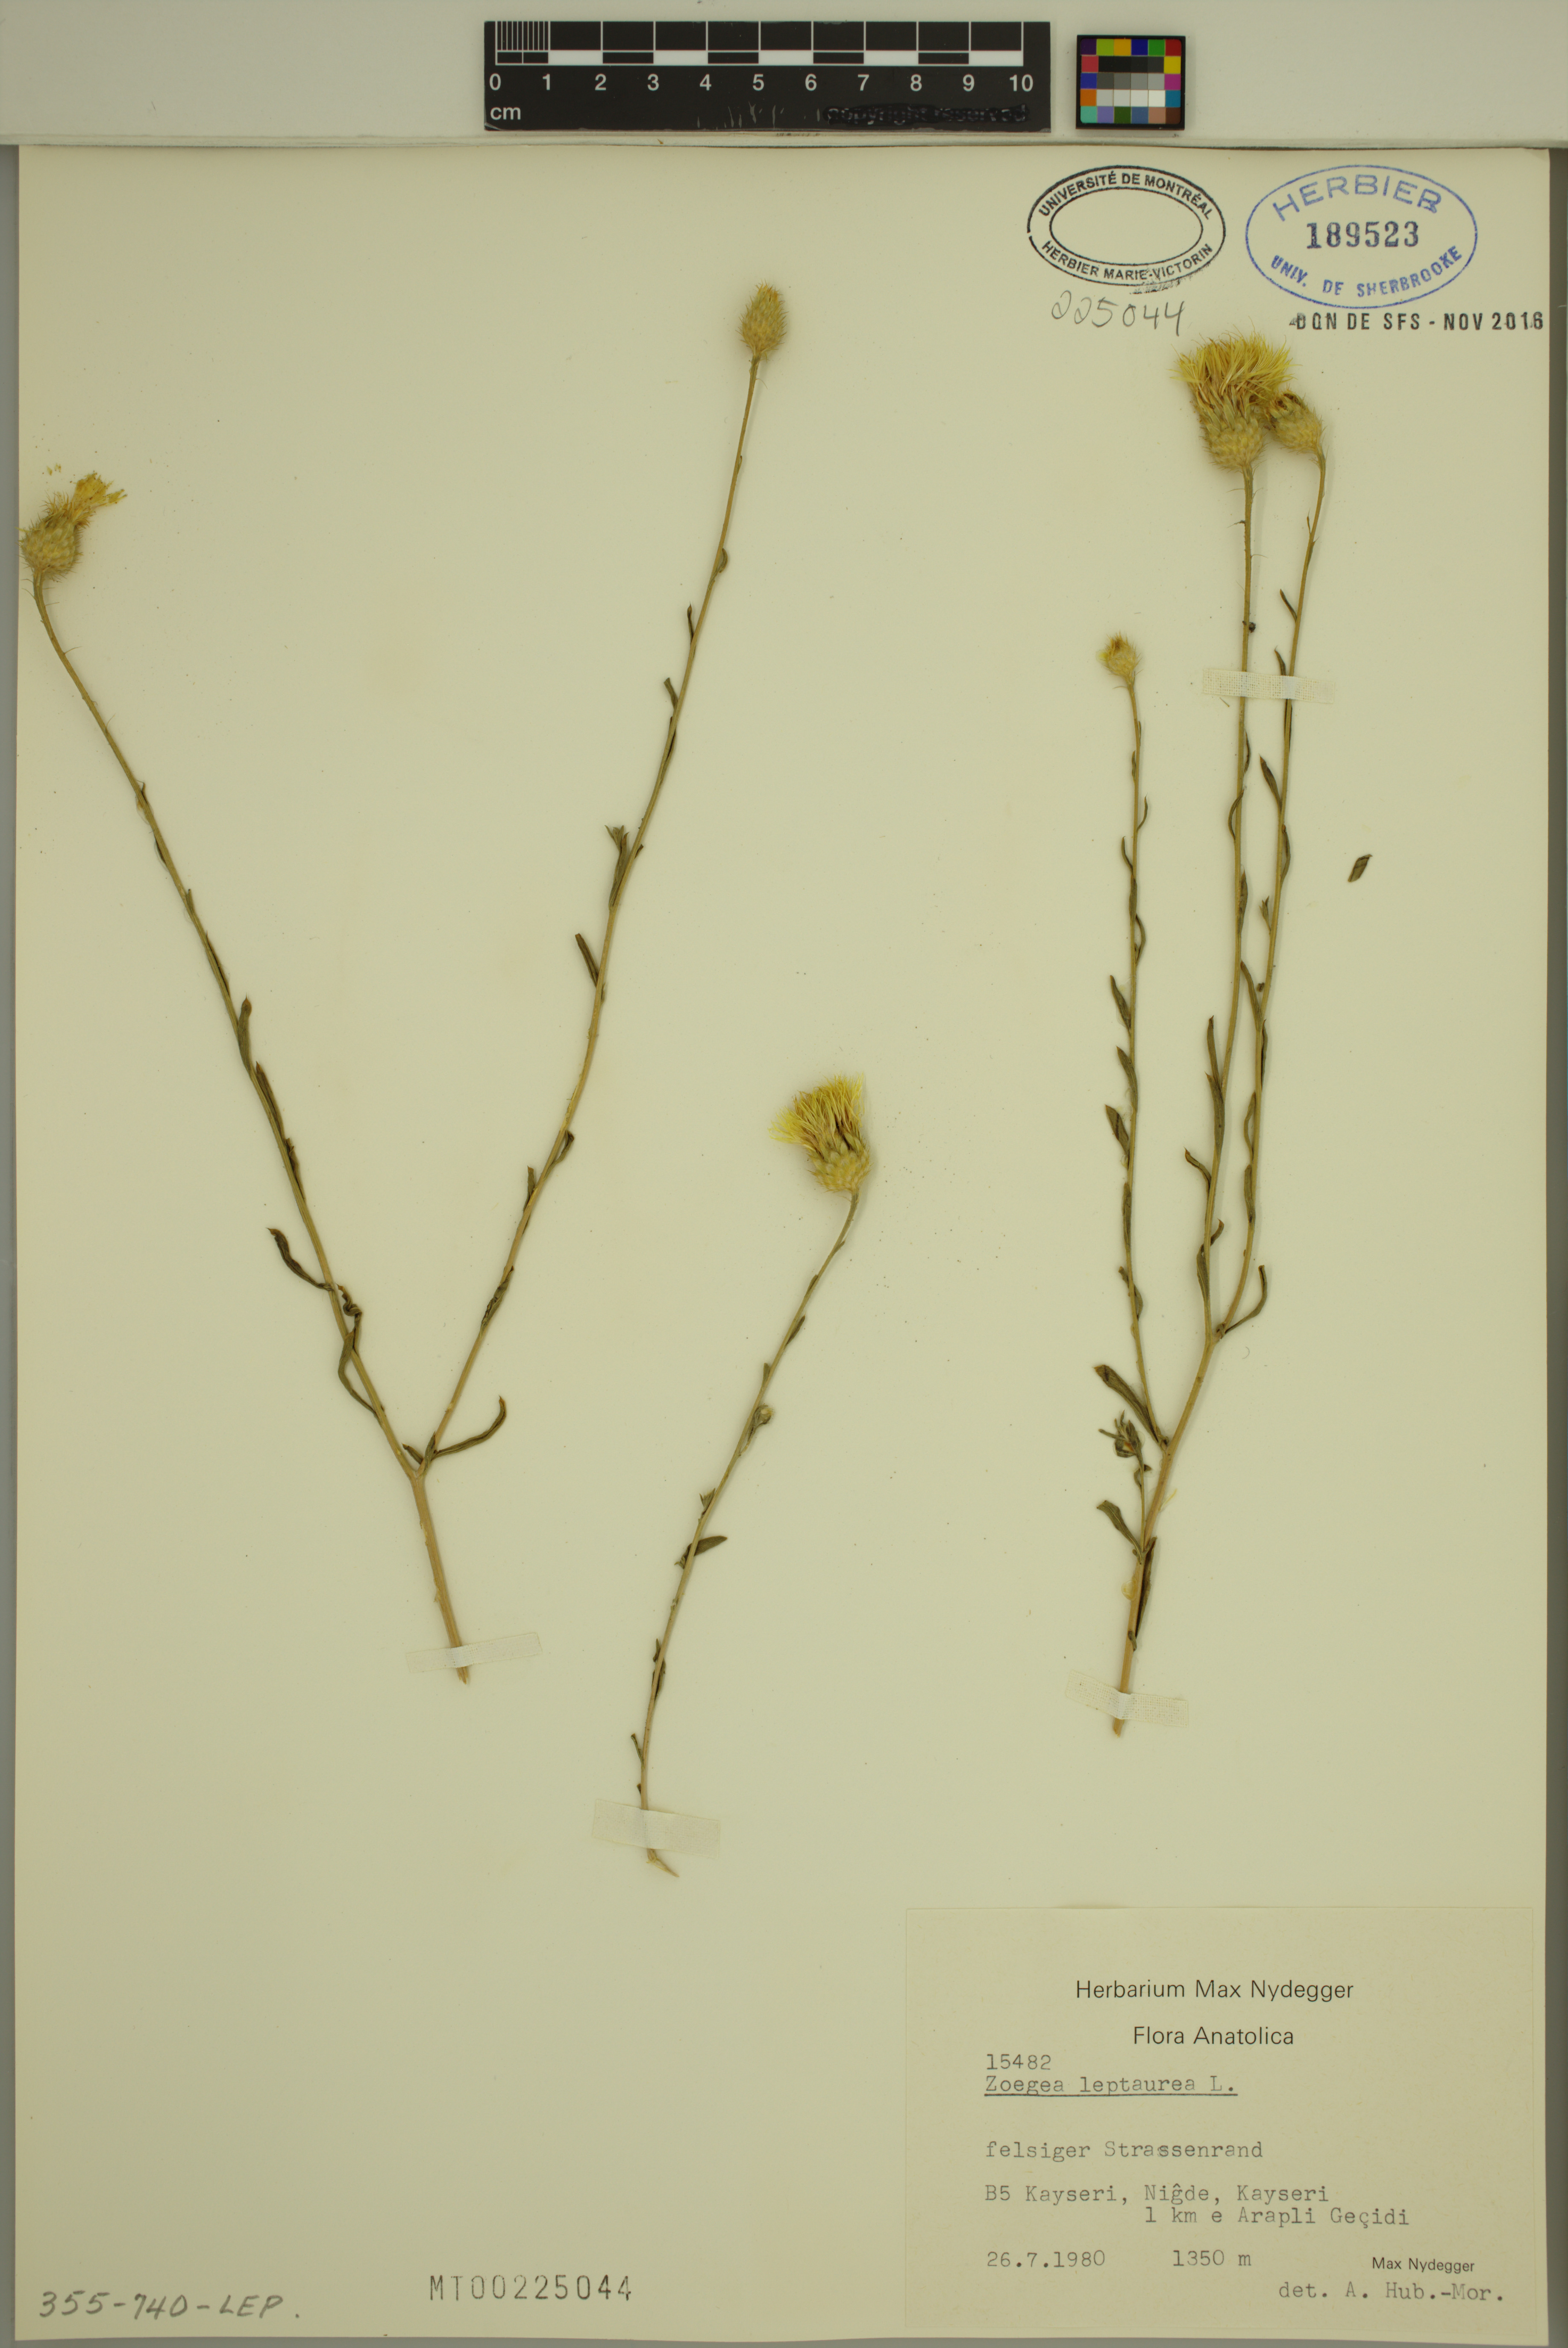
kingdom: Plantae
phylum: Tracheophyta
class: Magnoliopsida
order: Asterales
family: Asteraceae
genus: Zoegea
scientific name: Zoegea leptaurea
